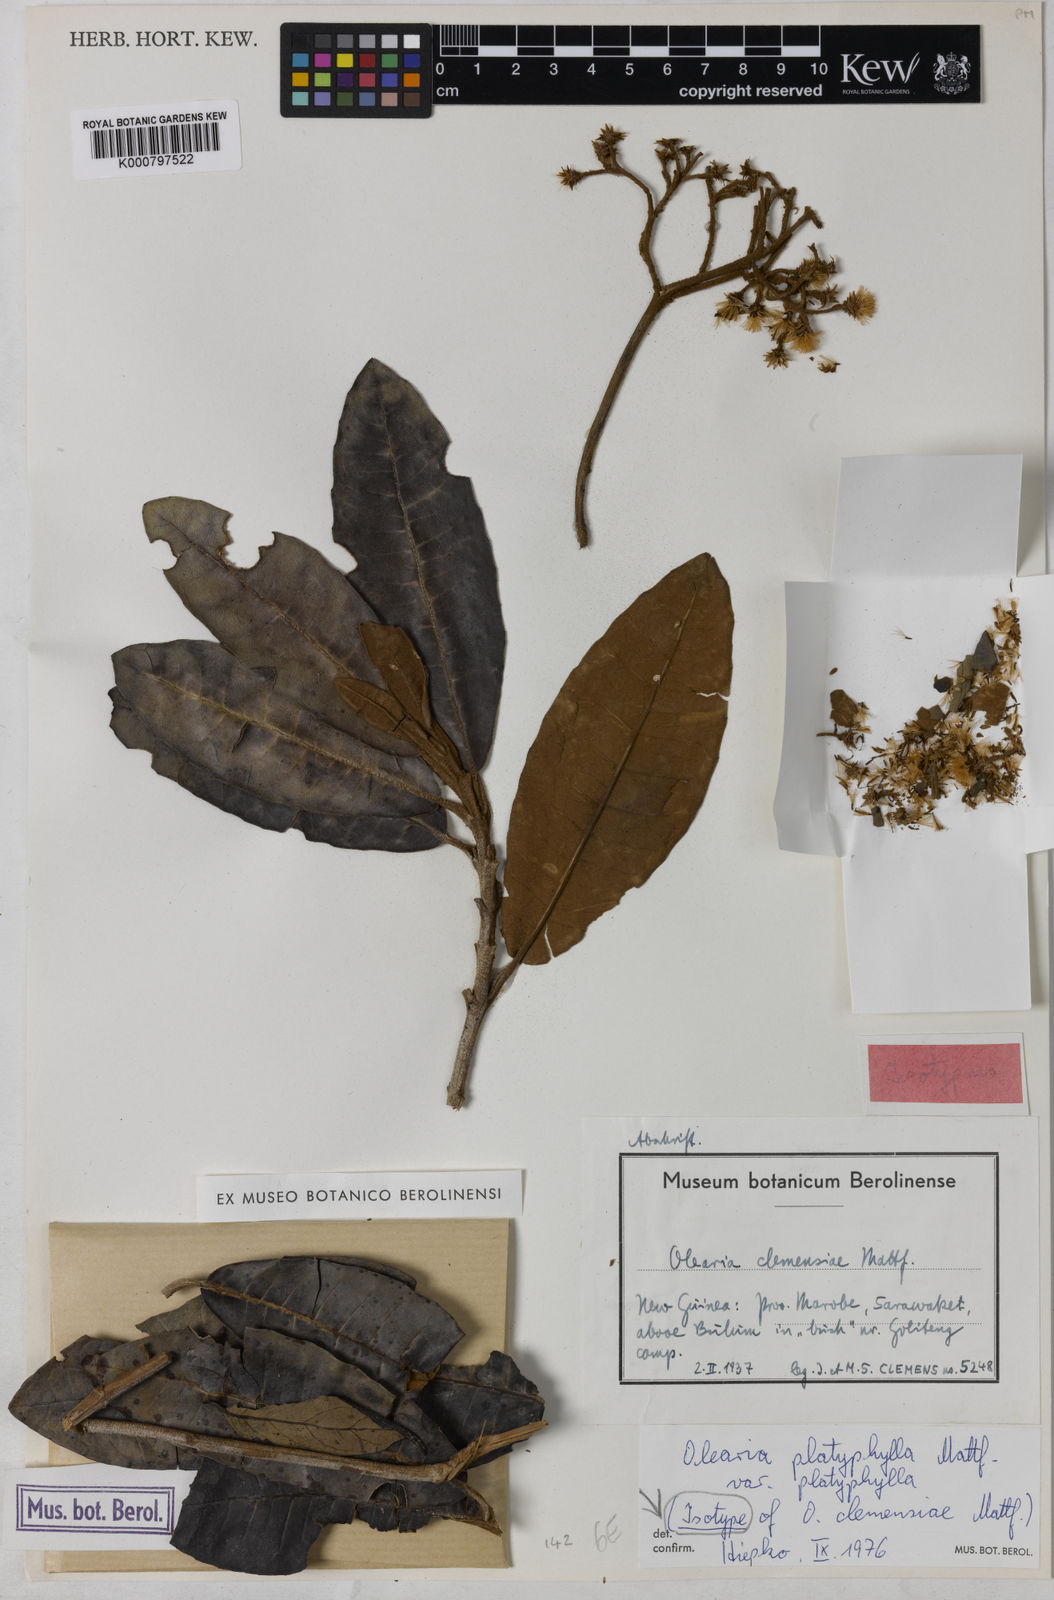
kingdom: Plantae
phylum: Tracheophyta
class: Magnoliopsida
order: Asterales
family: Asteraceae
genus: Olearia
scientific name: Olearia platyphylla
